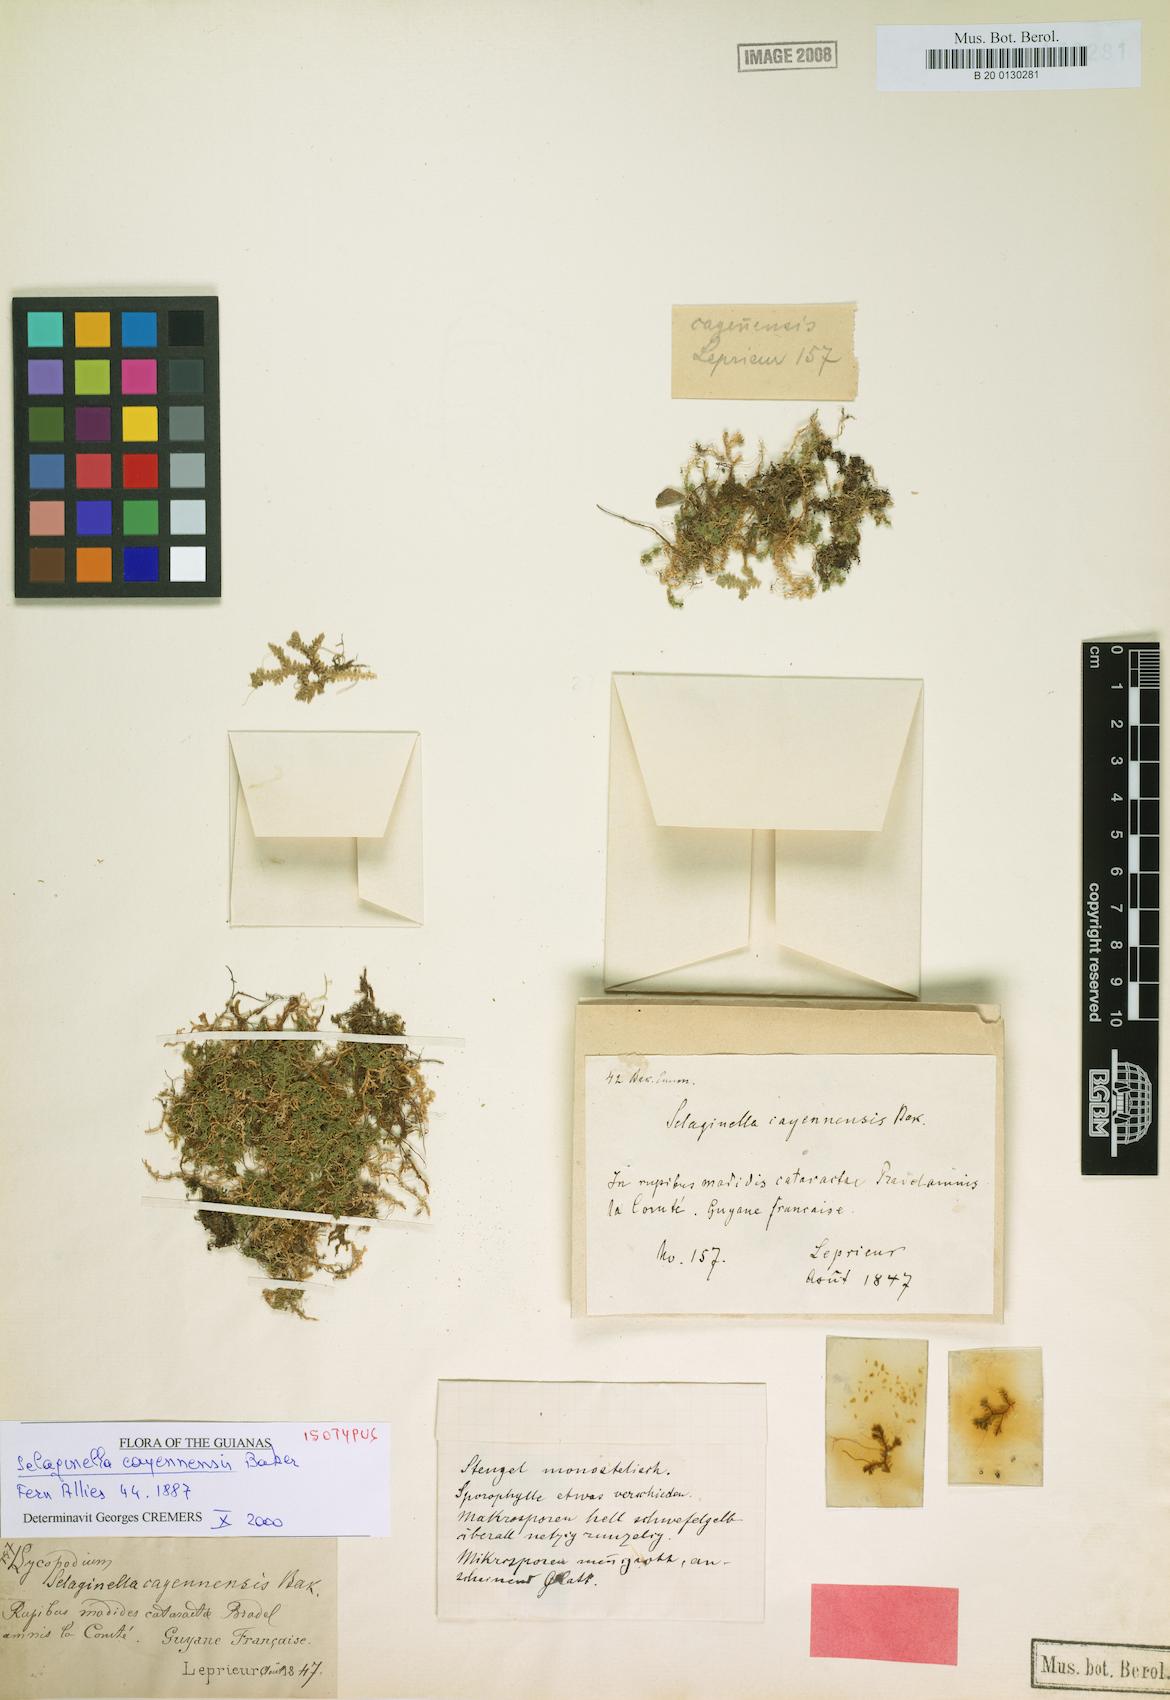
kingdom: Plantae
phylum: Tracheophyta
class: Lycopodiopsida
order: Selaginellales
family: Selaginellaceae
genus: Selaginella
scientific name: Selaginella producta
